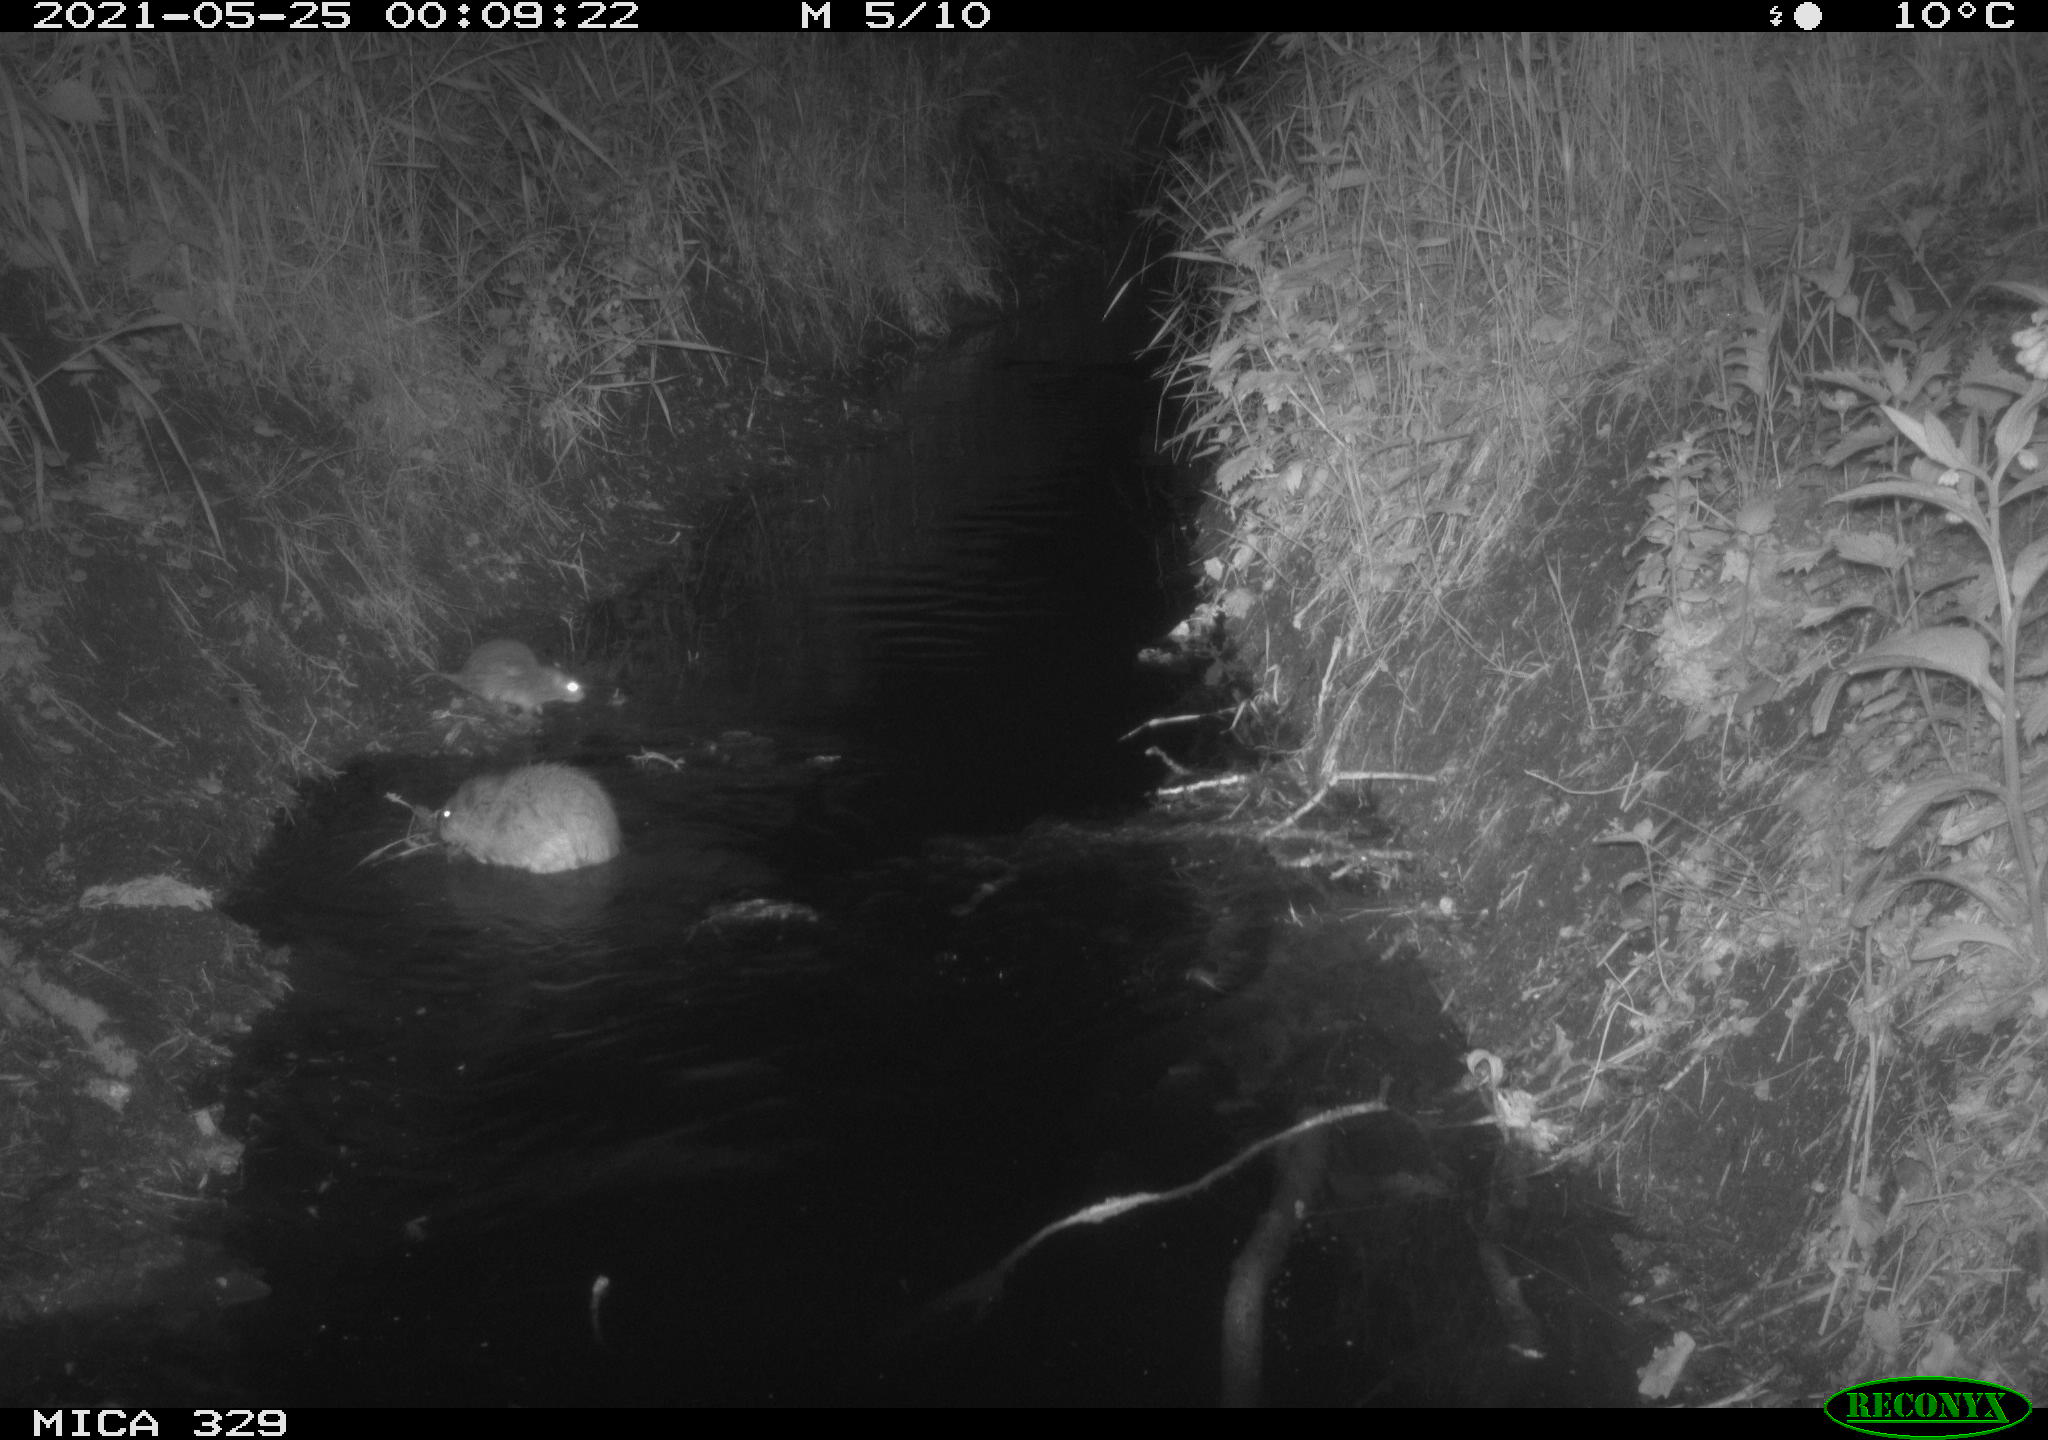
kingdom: Animalia
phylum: Chordata
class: Mammalia
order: Rodentia
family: Muridae
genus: Rattus
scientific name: Rattus norvegicus
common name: Brown rat
